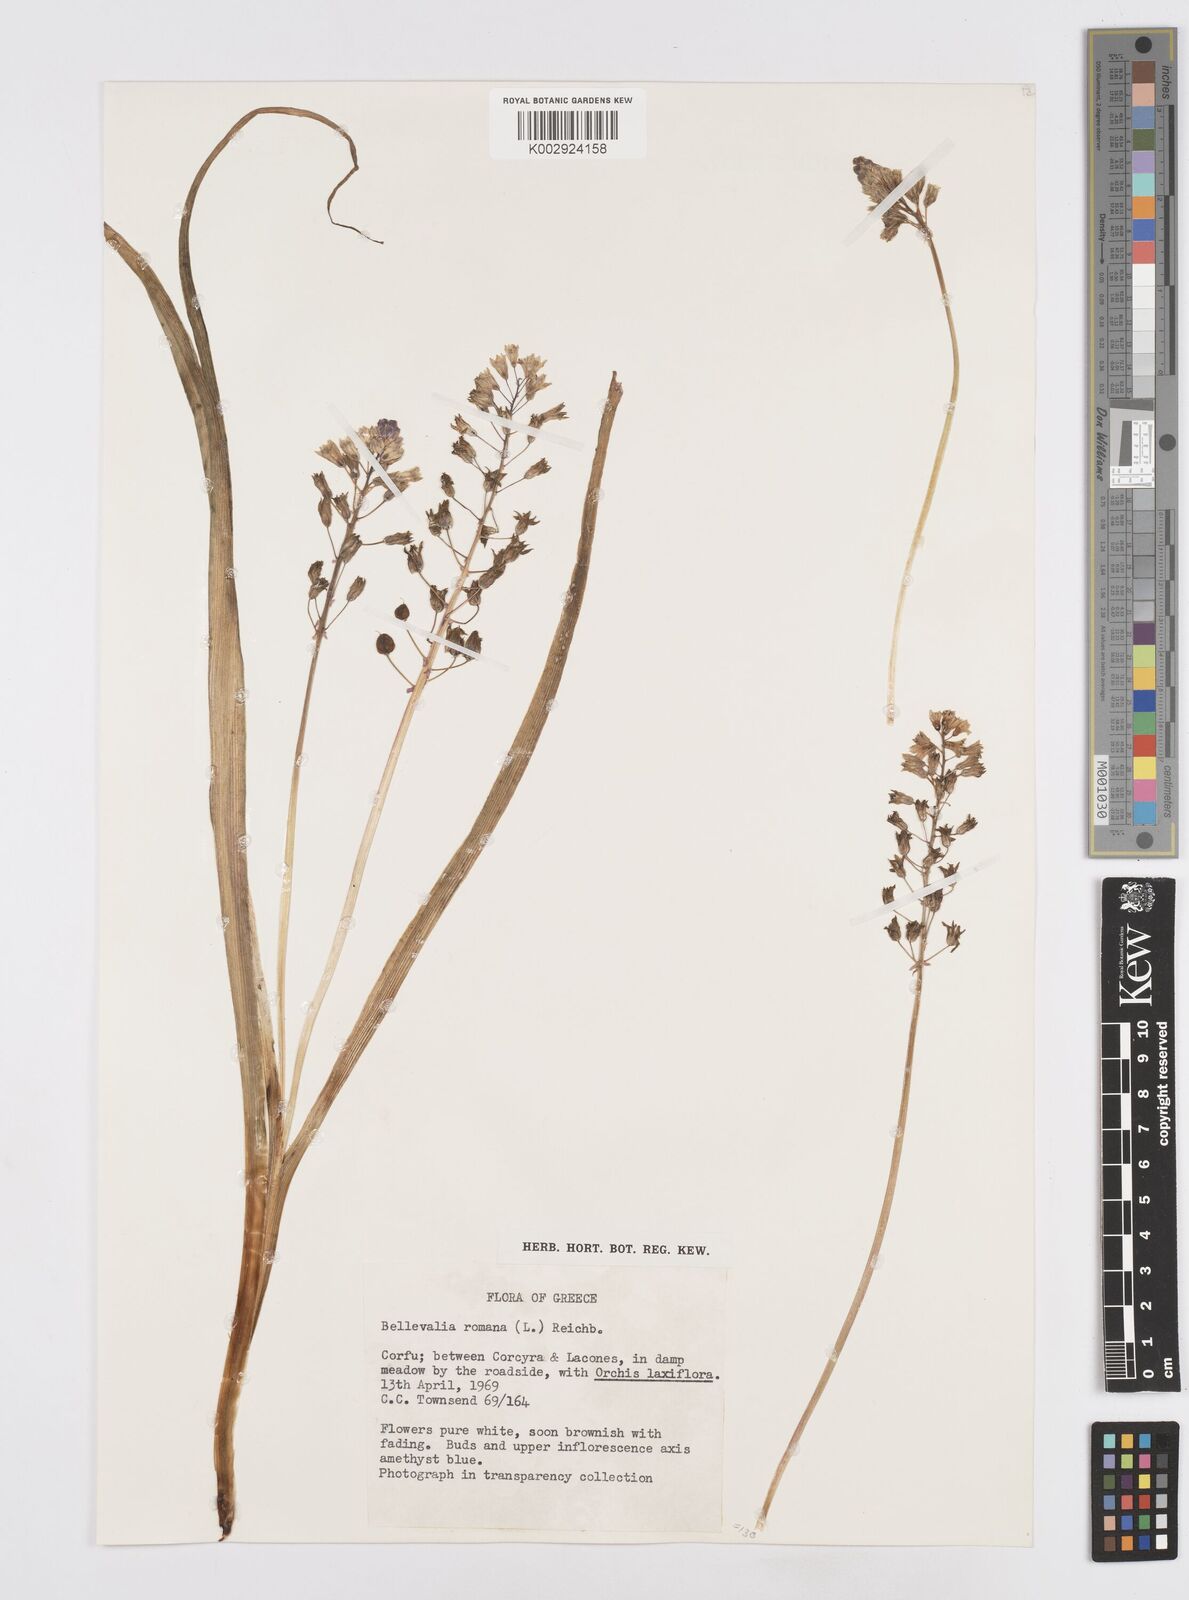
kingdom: Plantae
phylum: Tracheophyta
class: Liliopsida
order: Asparagales
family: Asparagaceae
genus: Bellevalia
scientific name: Bellevalia
